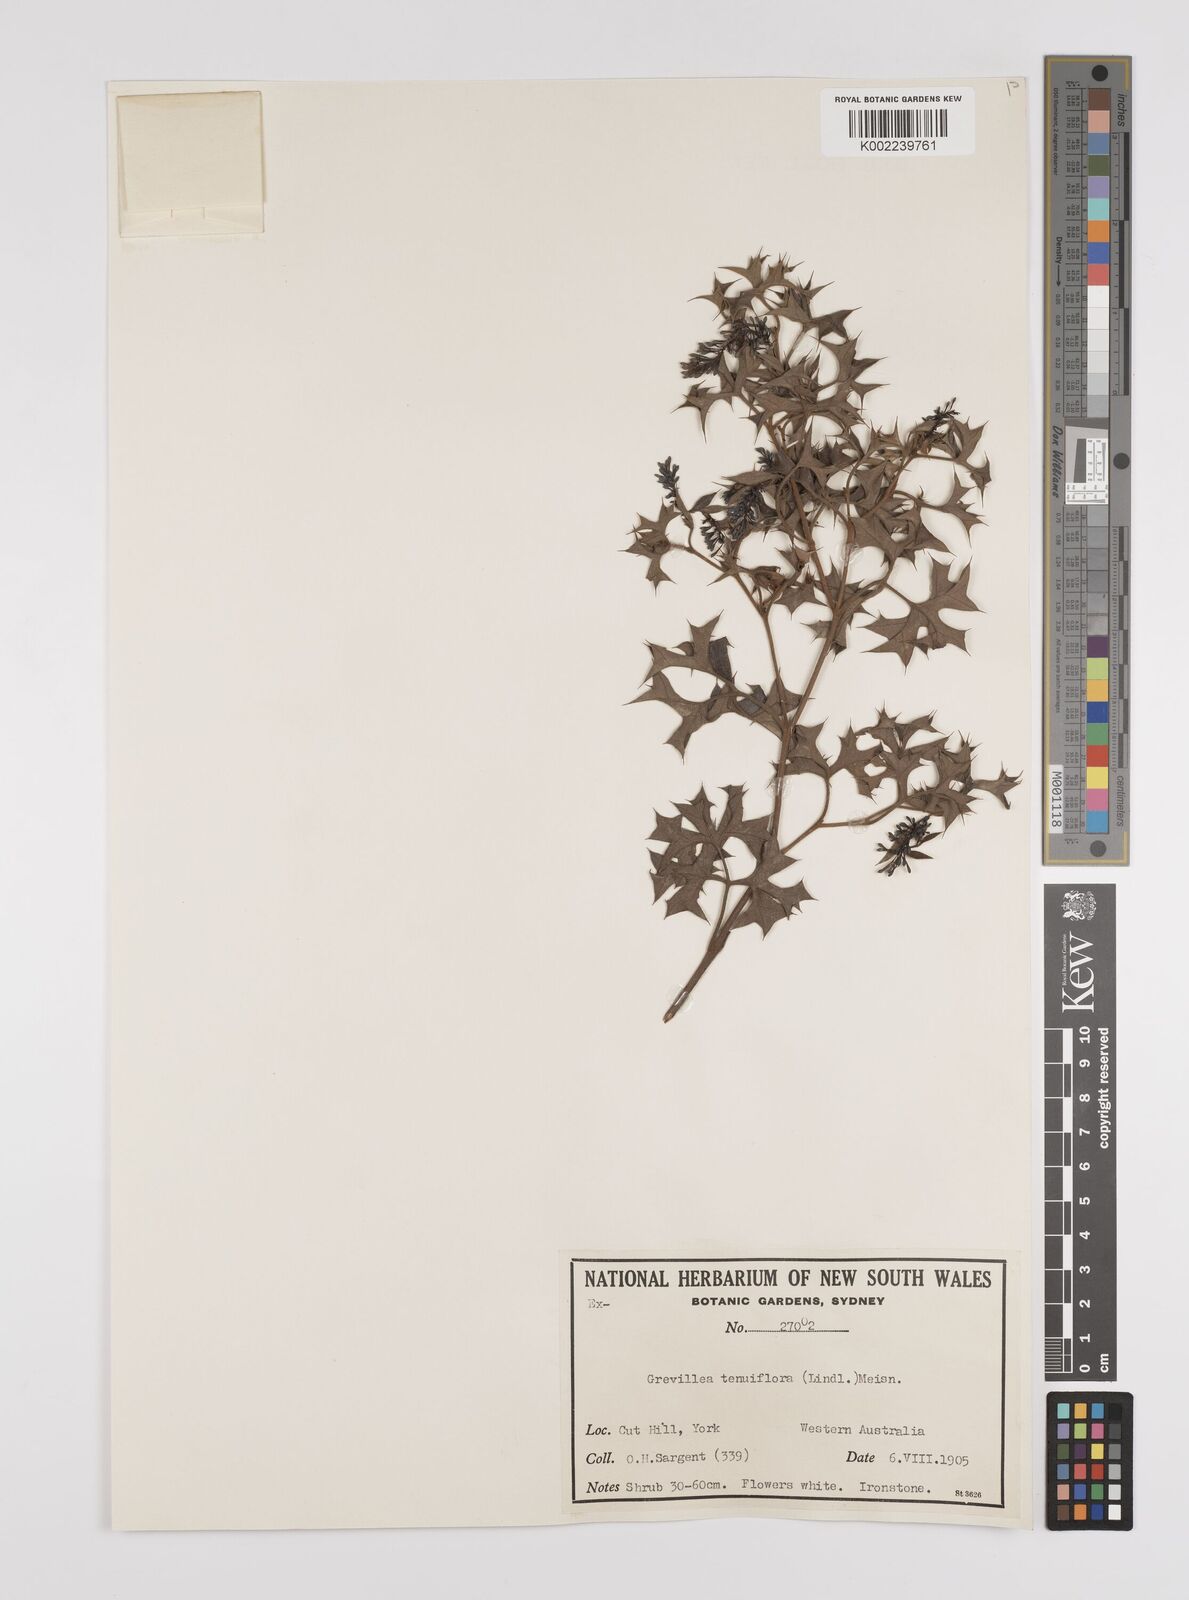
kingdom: Plantae
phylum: Tracheophyta
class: Magnoliopsida
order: Proteales
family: Proteaceae
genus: Grevillea
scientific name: Grevillea tenuiflora
